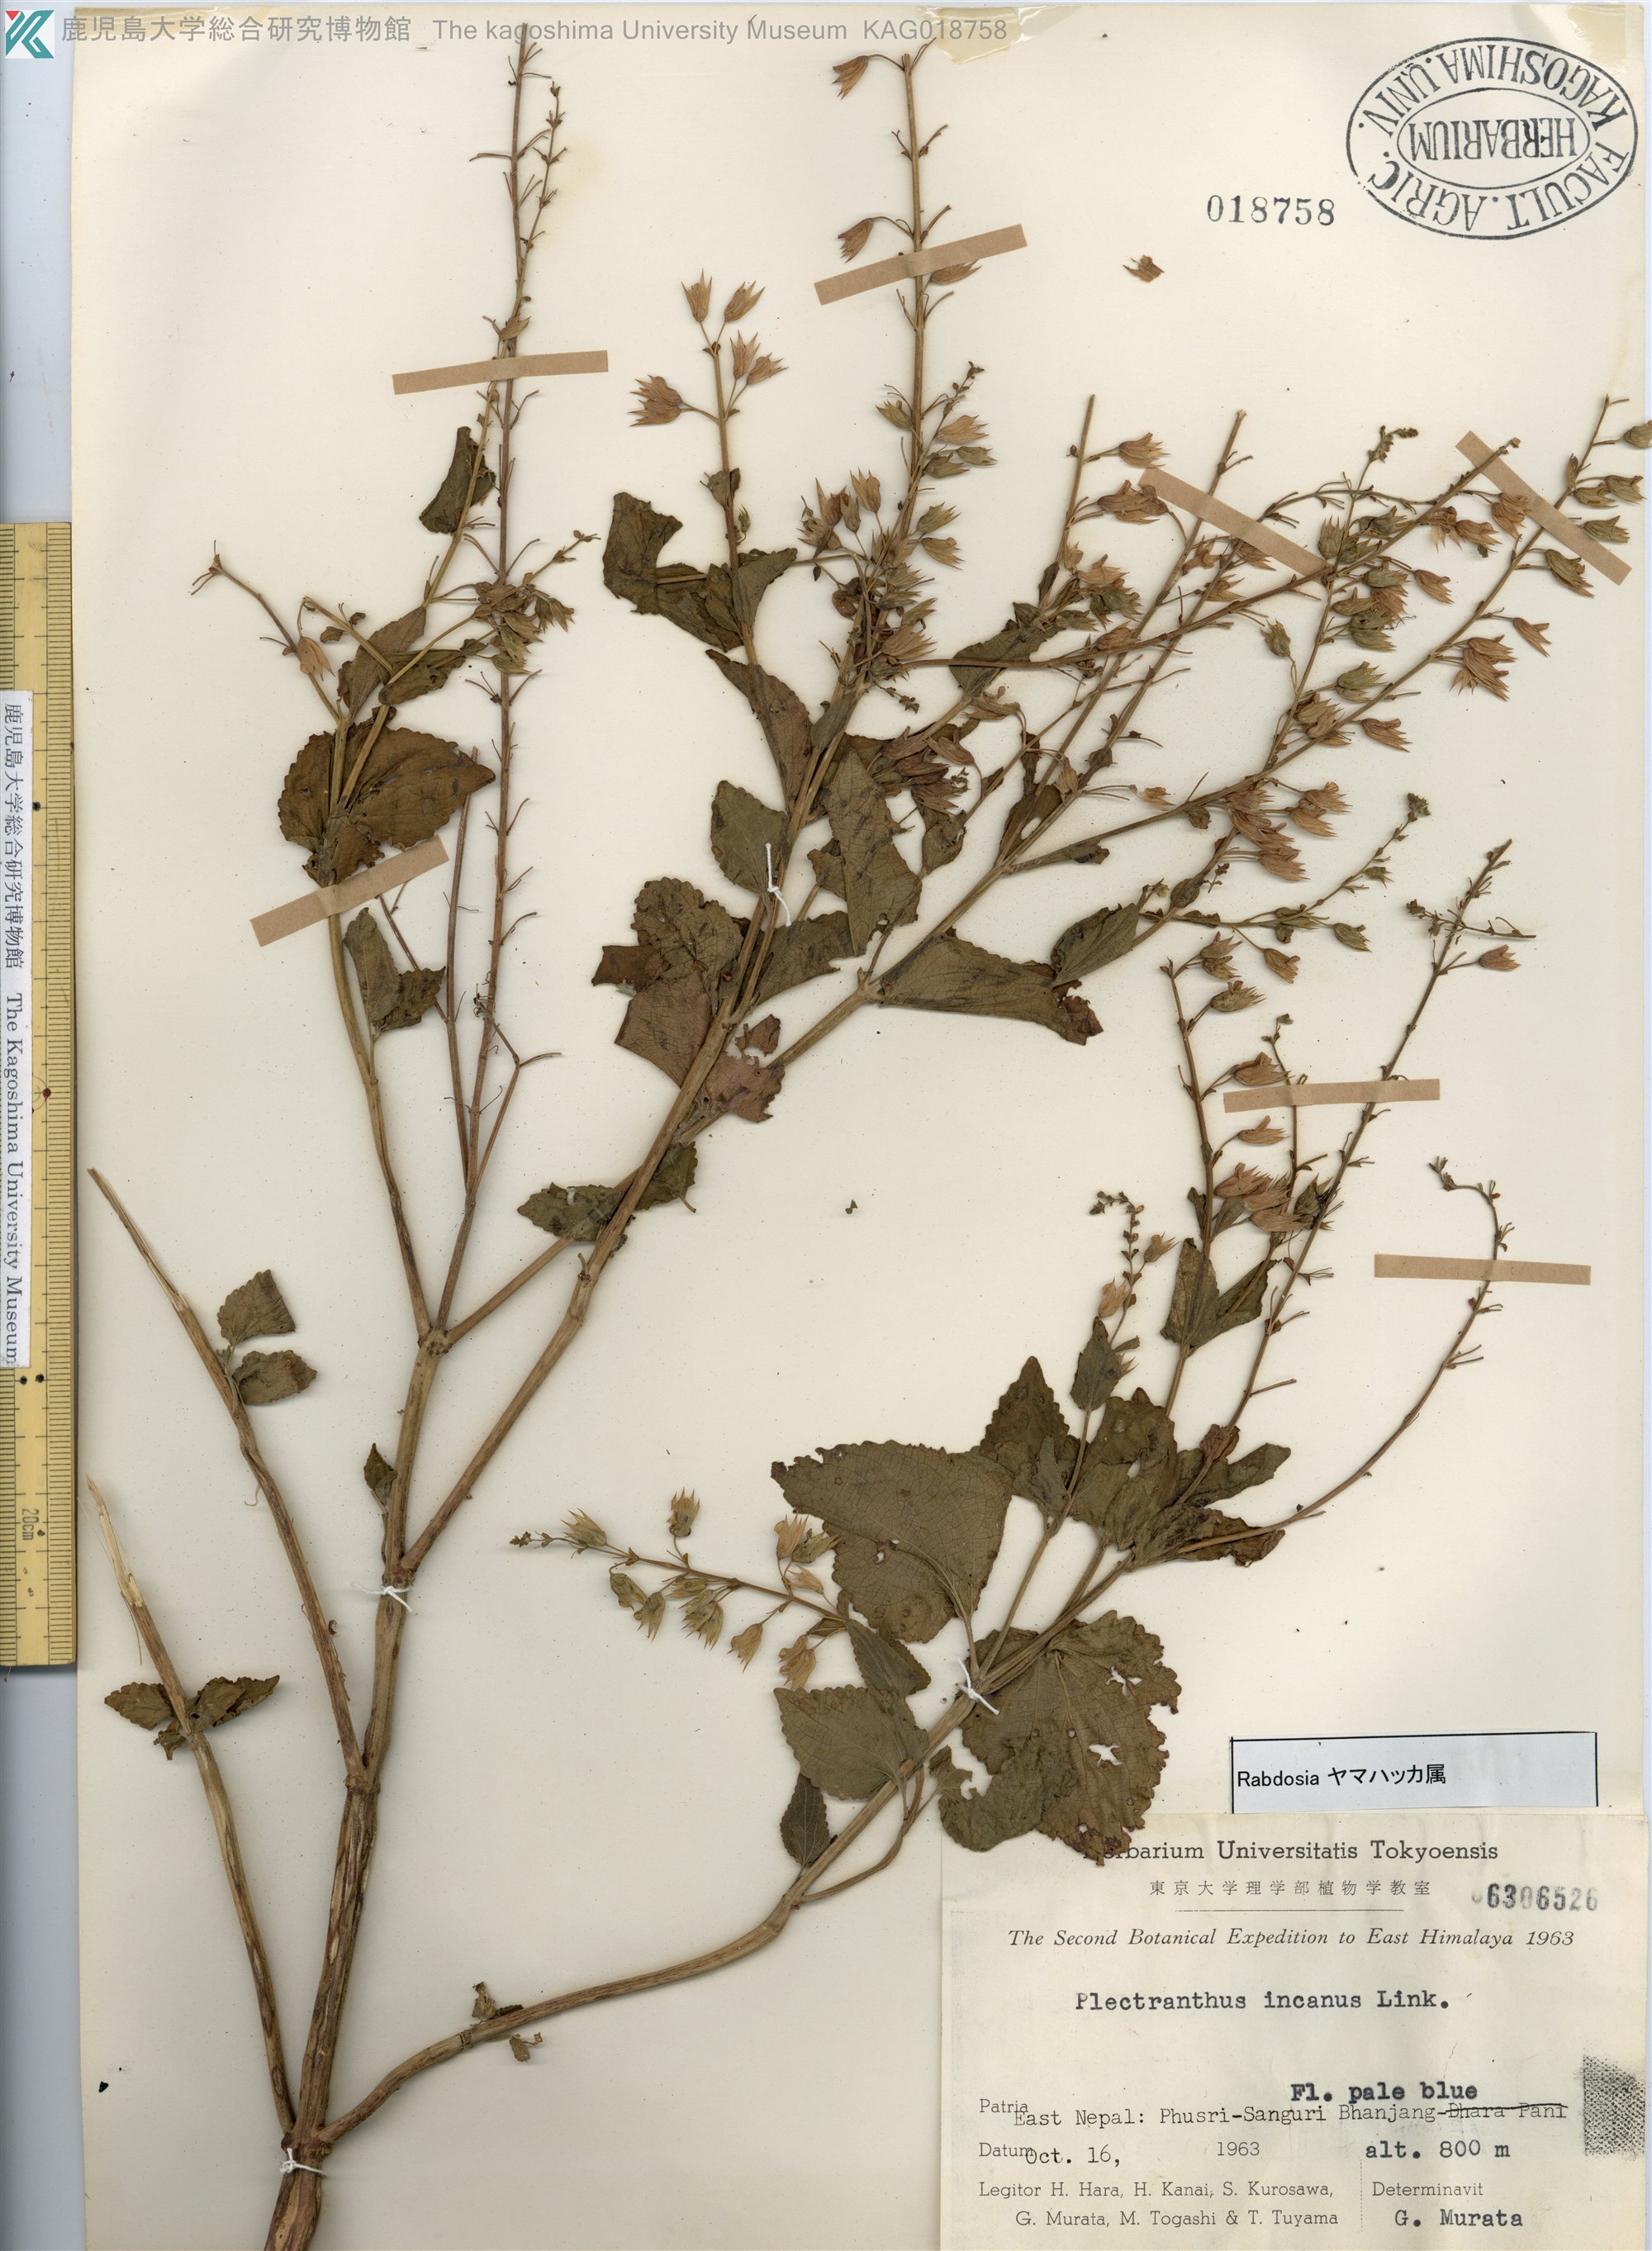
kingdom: Plantae
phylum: Tracheophyta
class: Magnoliopsida
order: Lamiales
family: Lamiaceae
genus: Isodon
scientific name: Isodon
